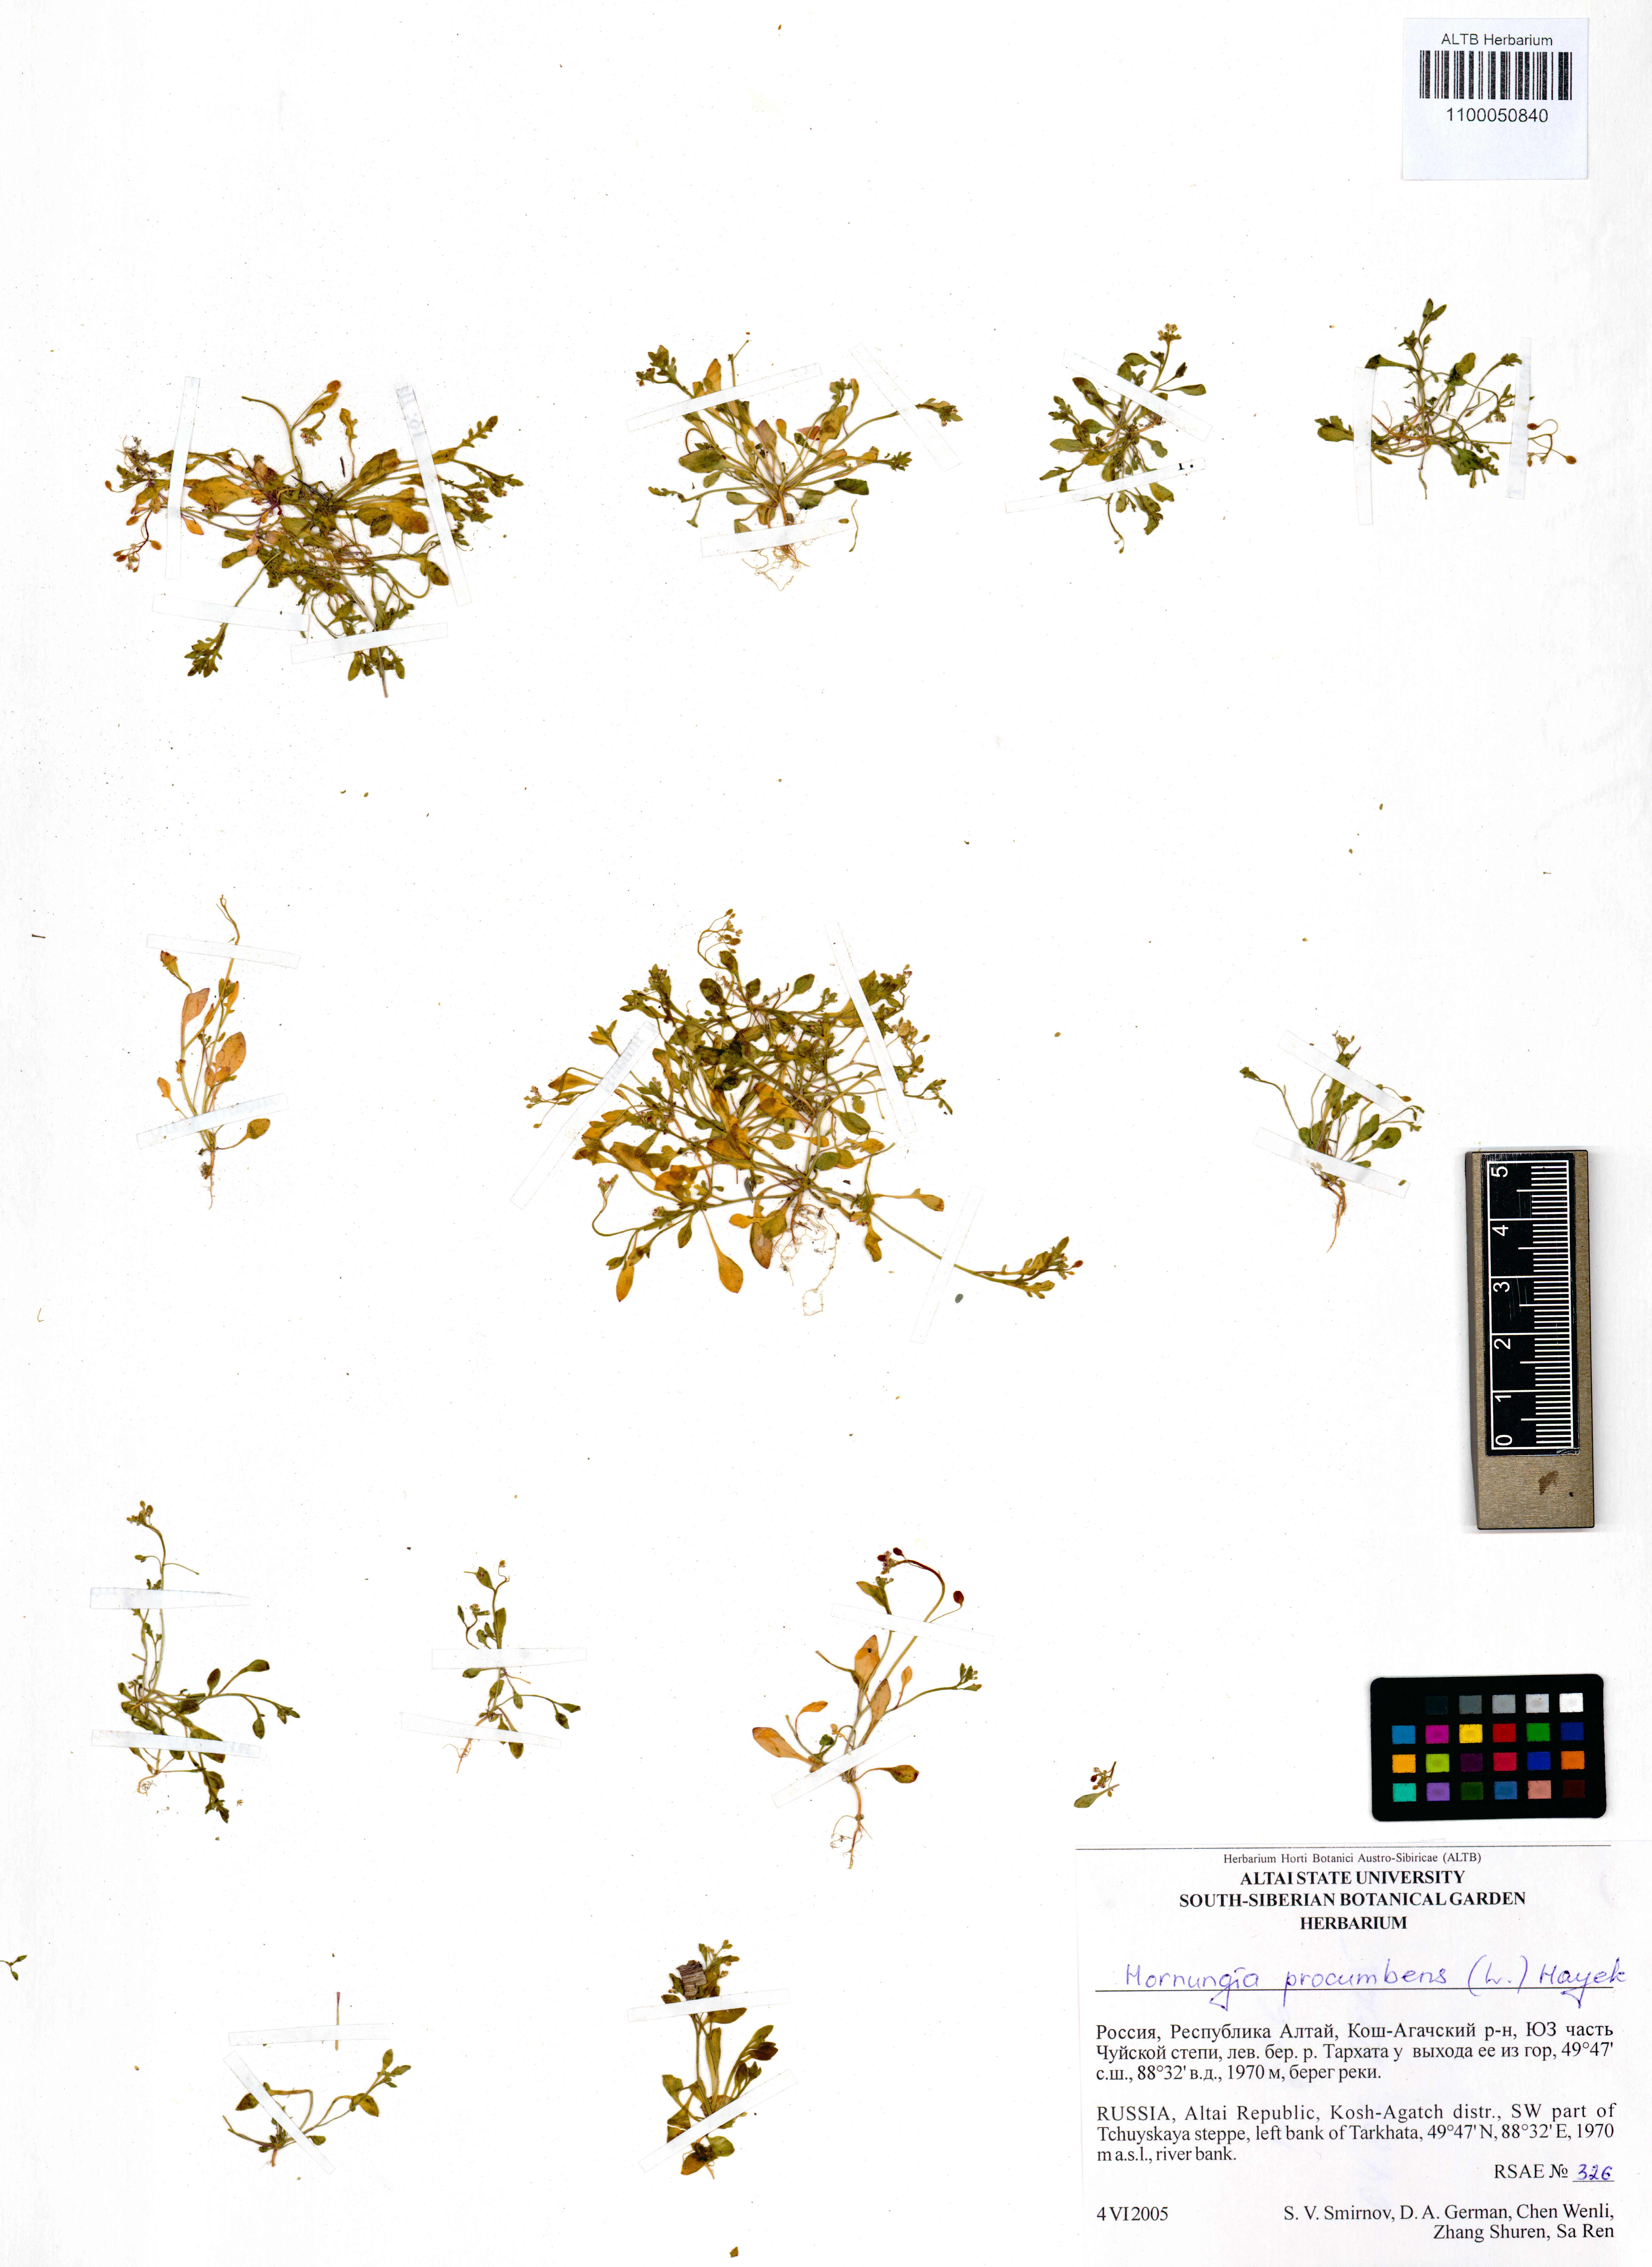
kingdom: Plantae
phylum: Tracheophyta
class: Magnoliopsida
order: Brassicales
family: Brassicaceae
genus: Hornungia
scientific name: Hornungia procumbens
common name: Oval purse
